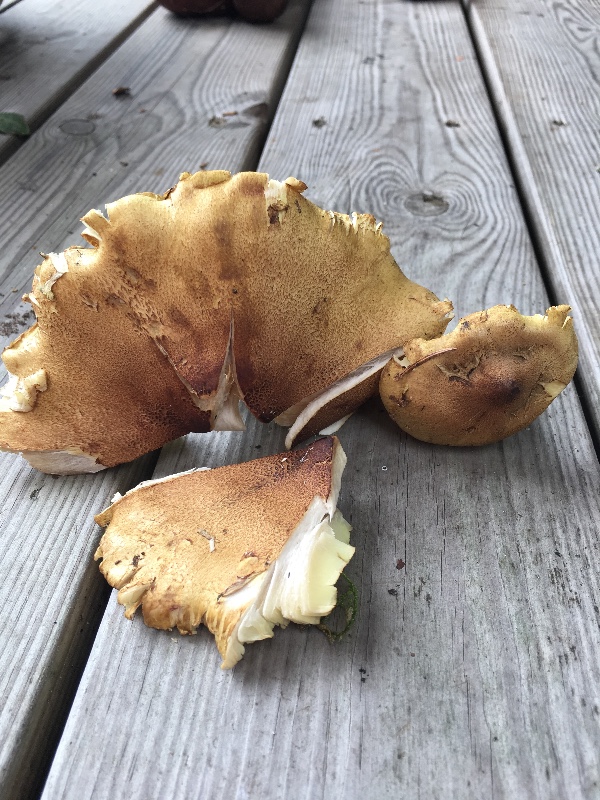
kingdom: Fungi
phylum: Basidiomycota
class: Agaricomycetes
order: Agaricales
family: Tricholomataceae
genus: Tricholoma
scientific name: Tricholoma aestuans
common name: kegle-ridderhat
